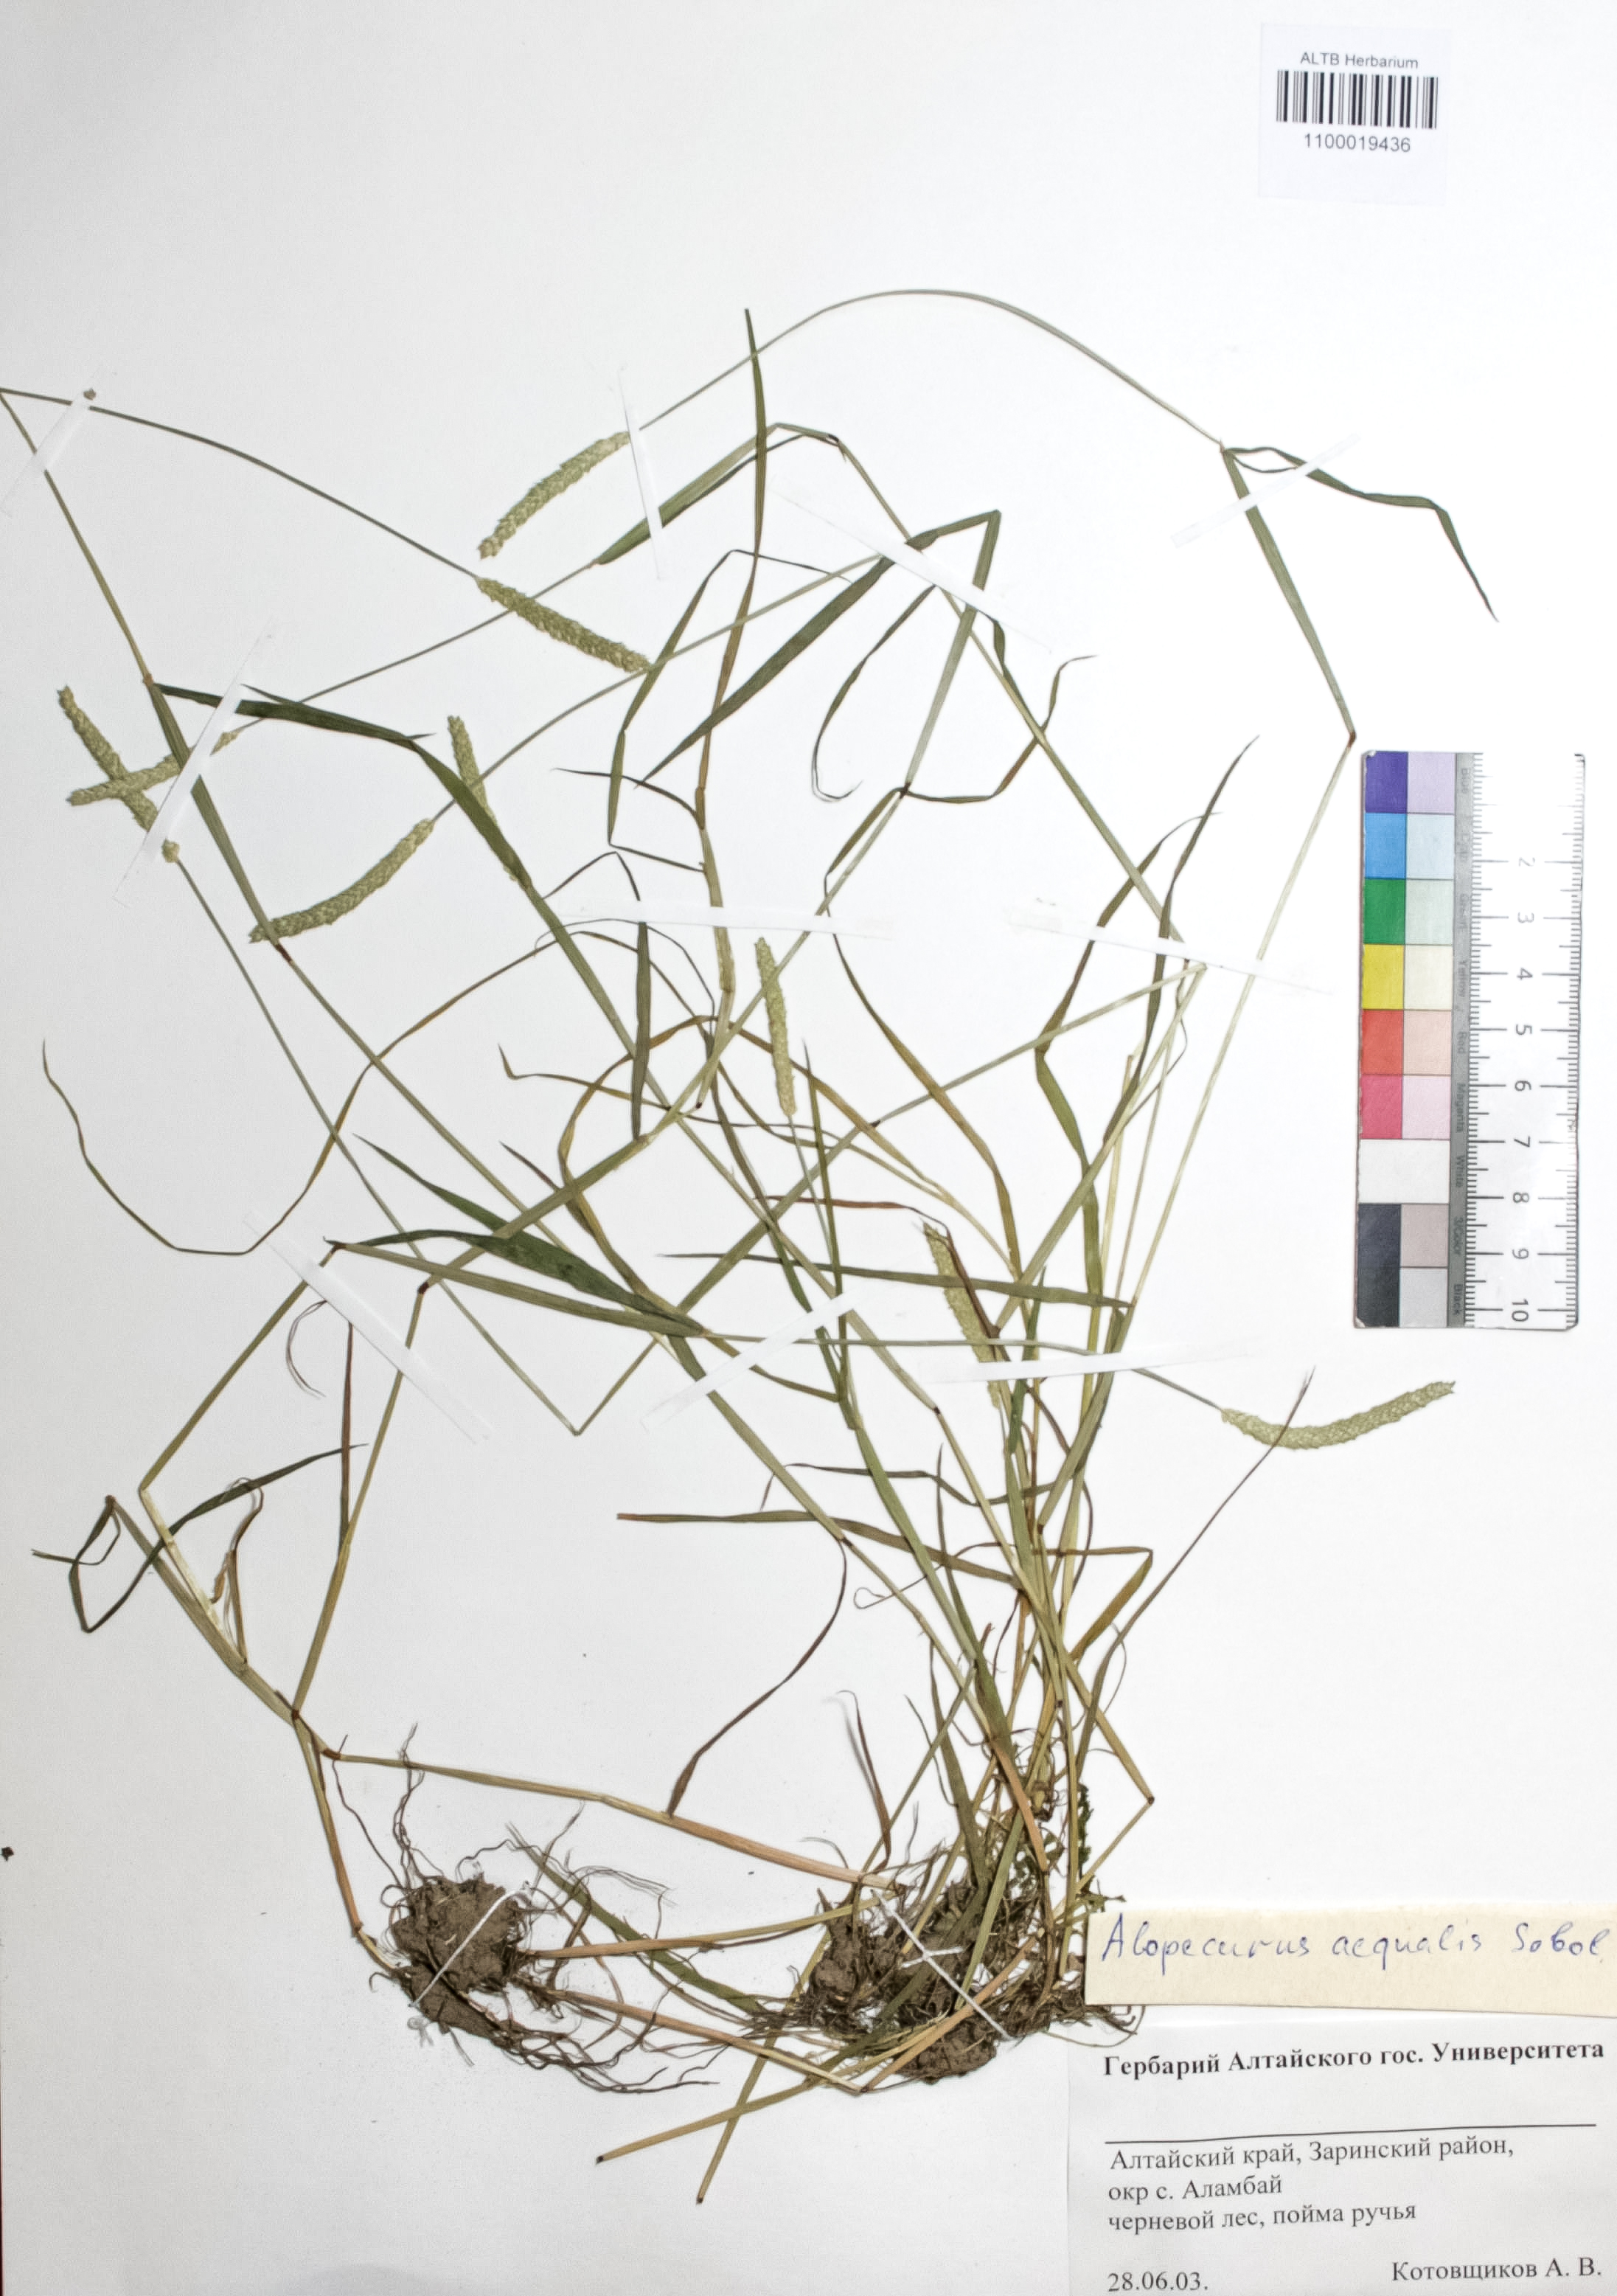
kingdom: Plantae
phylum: Tracheophyta
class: Liliopsida
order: Poales
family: Poaceae
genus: Alopecurus
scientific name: Alopecurus aequalis
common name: Orange foxtail
